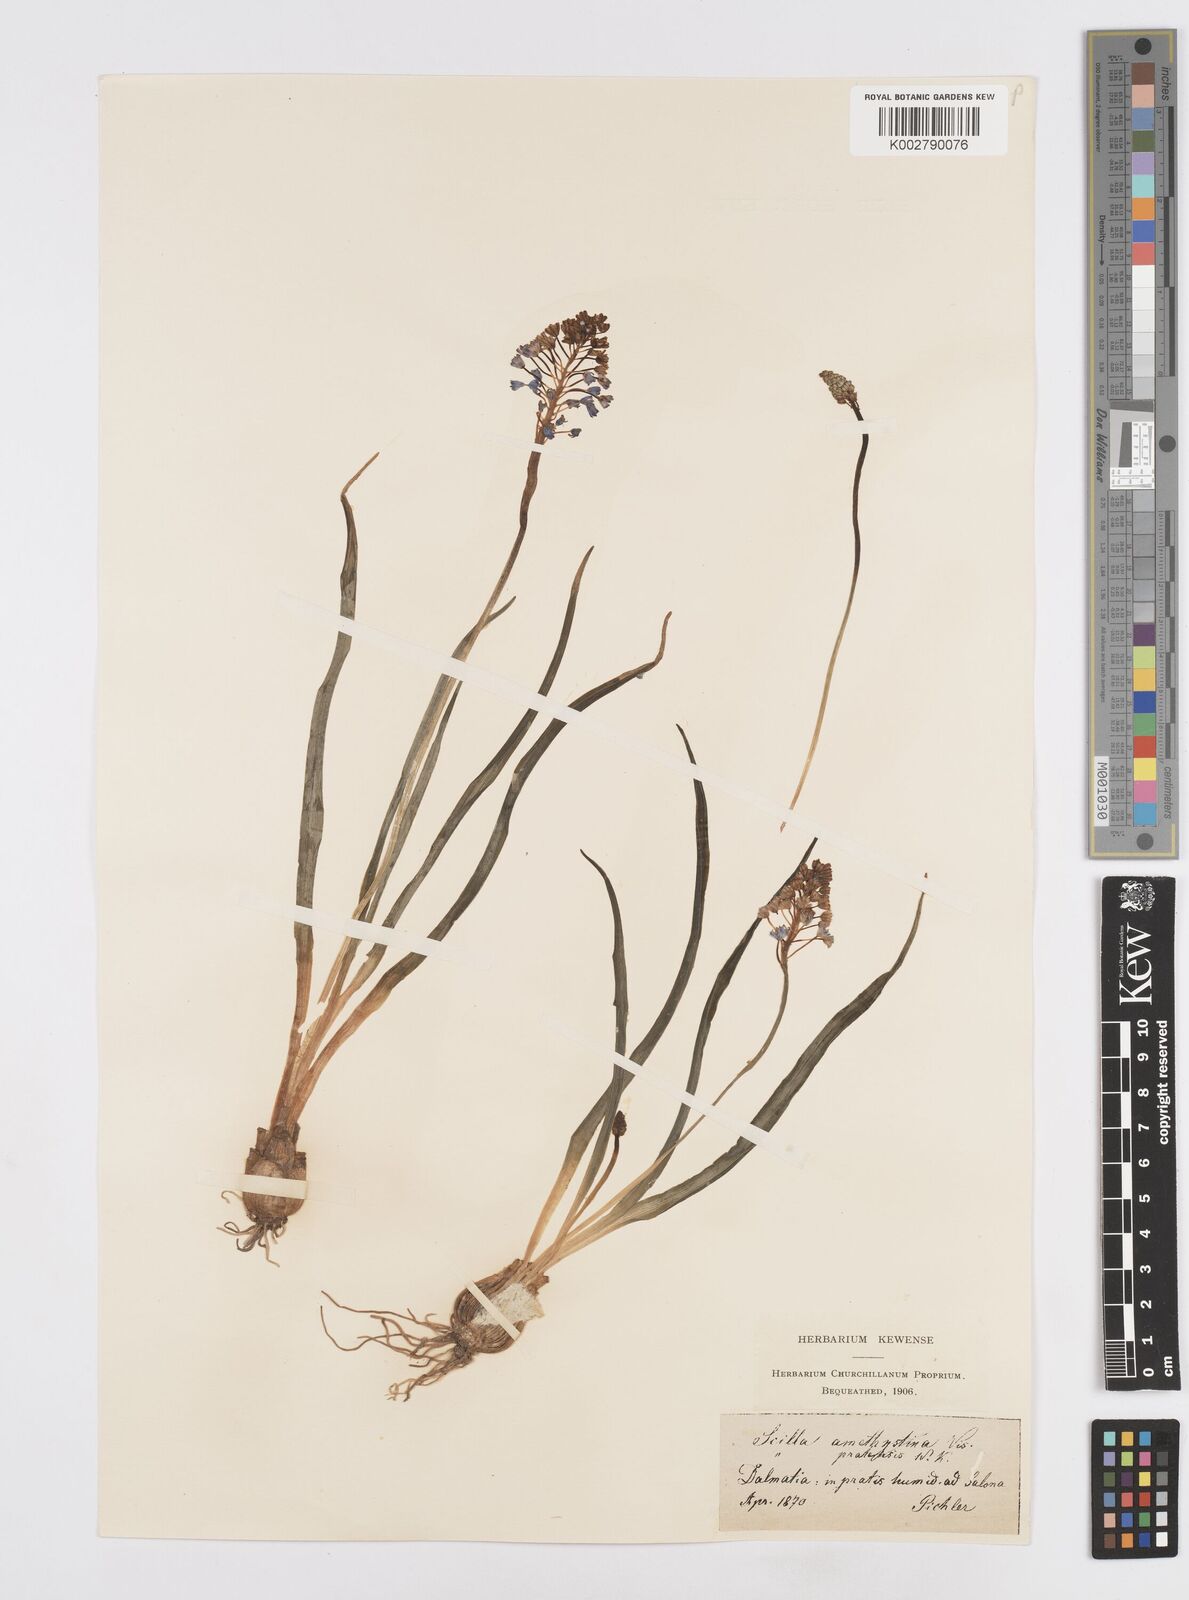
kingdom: Plantae
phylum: Tracheophyta
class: Liliopsida
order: Asparagales
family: Asparagaceae
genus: Scilla
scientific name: Scilla litardierei
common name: Amethyst meadow squill
